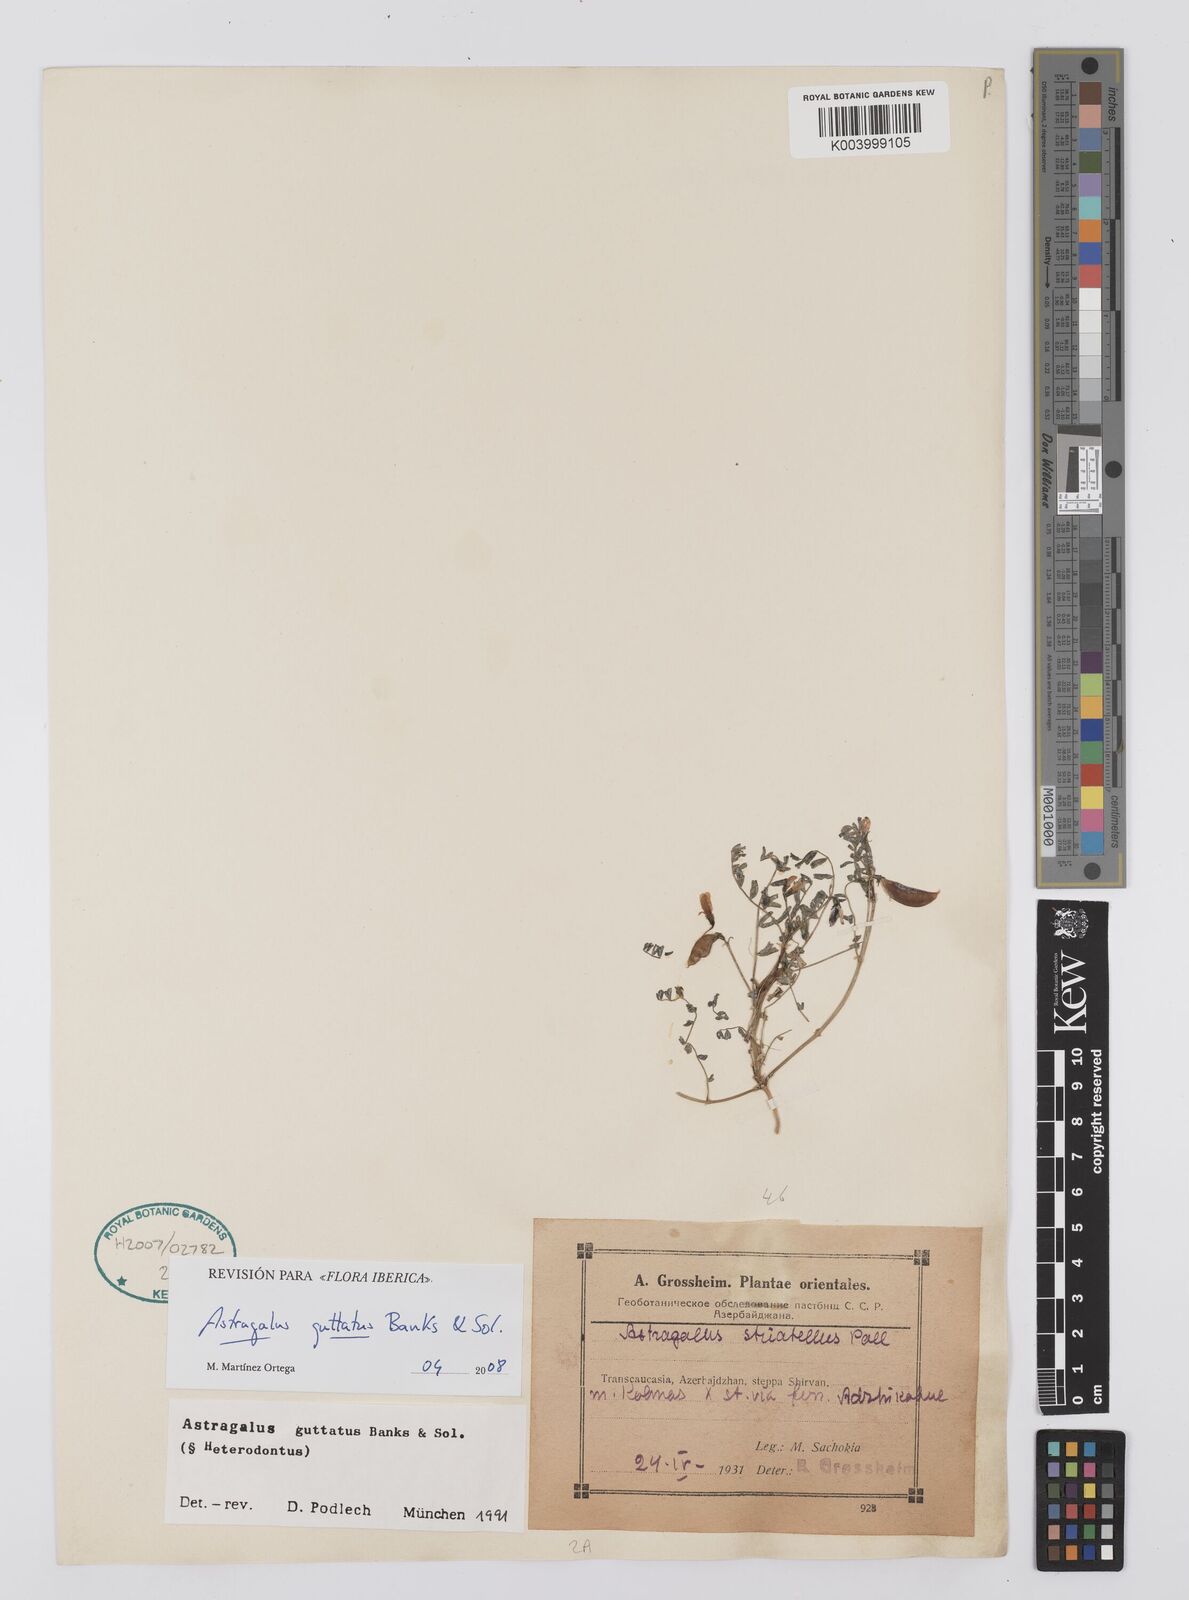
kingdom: Plantae
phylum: Tracheophyta
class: Magnoliopsida
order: Fabales
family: Fabaceae
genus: Astragalus
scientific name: Astragalus heterodontus
